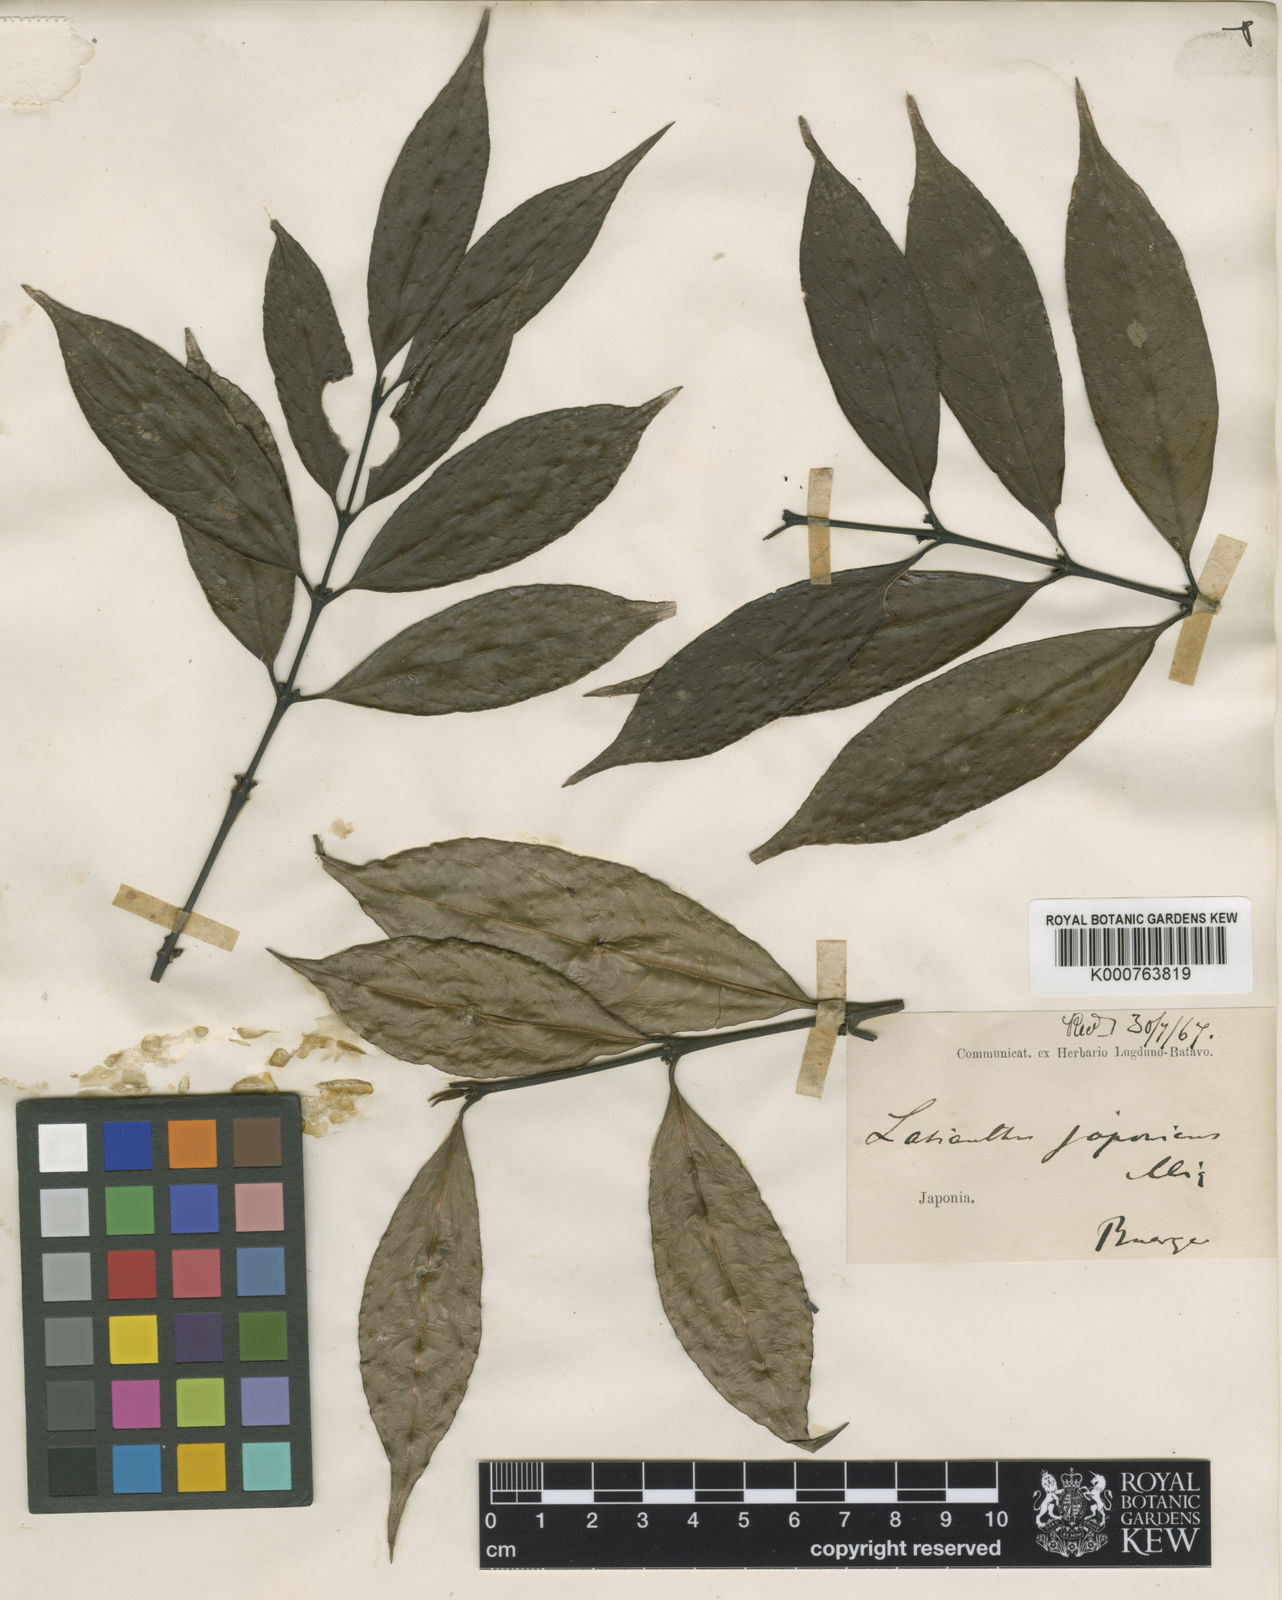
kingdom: Plantae
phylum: Tracheophyta
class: Magnoliopsida
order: Gentianales
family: Rubiaceae
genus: Lasianthus
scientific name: Lasianthus japonicus
